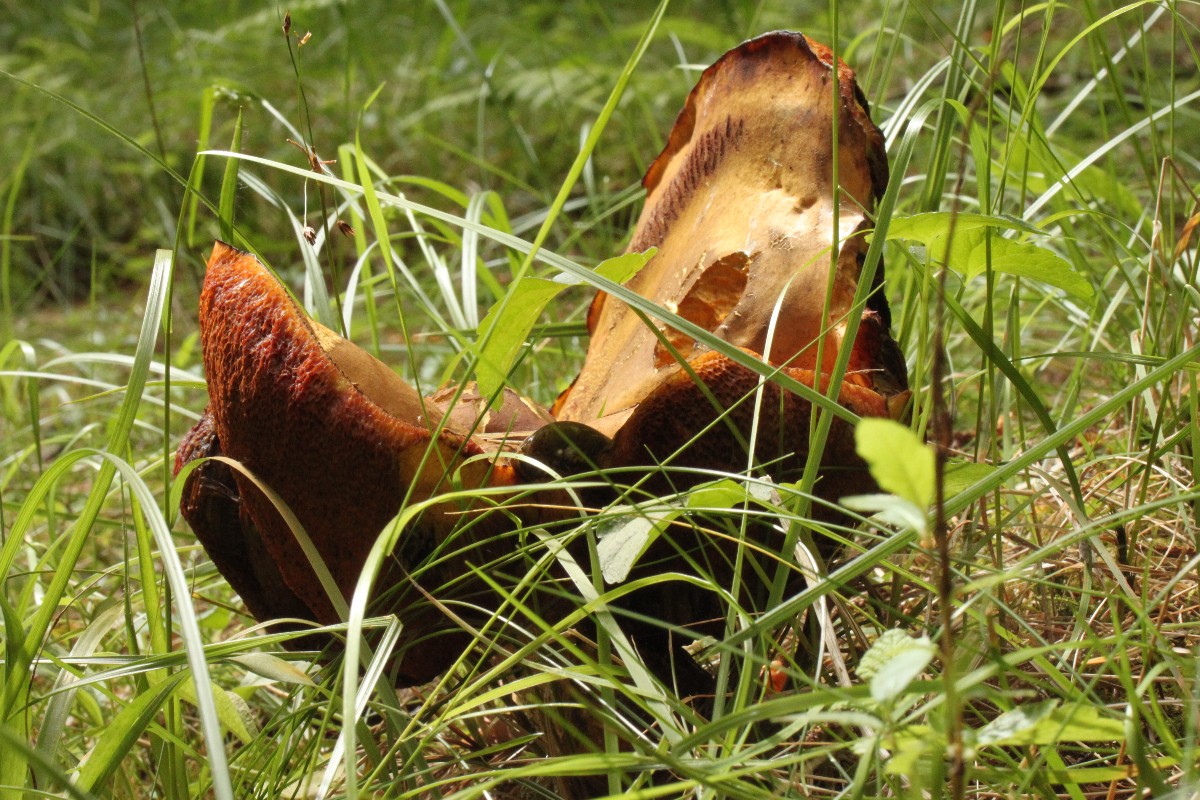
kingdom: Fungi
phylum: Basidiomycota
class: Agaricomycetes
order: Boletales
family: Boletaceae
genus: Neoboletus
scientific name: Neoboletus erythropus
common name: punktstokket indigorørhat
